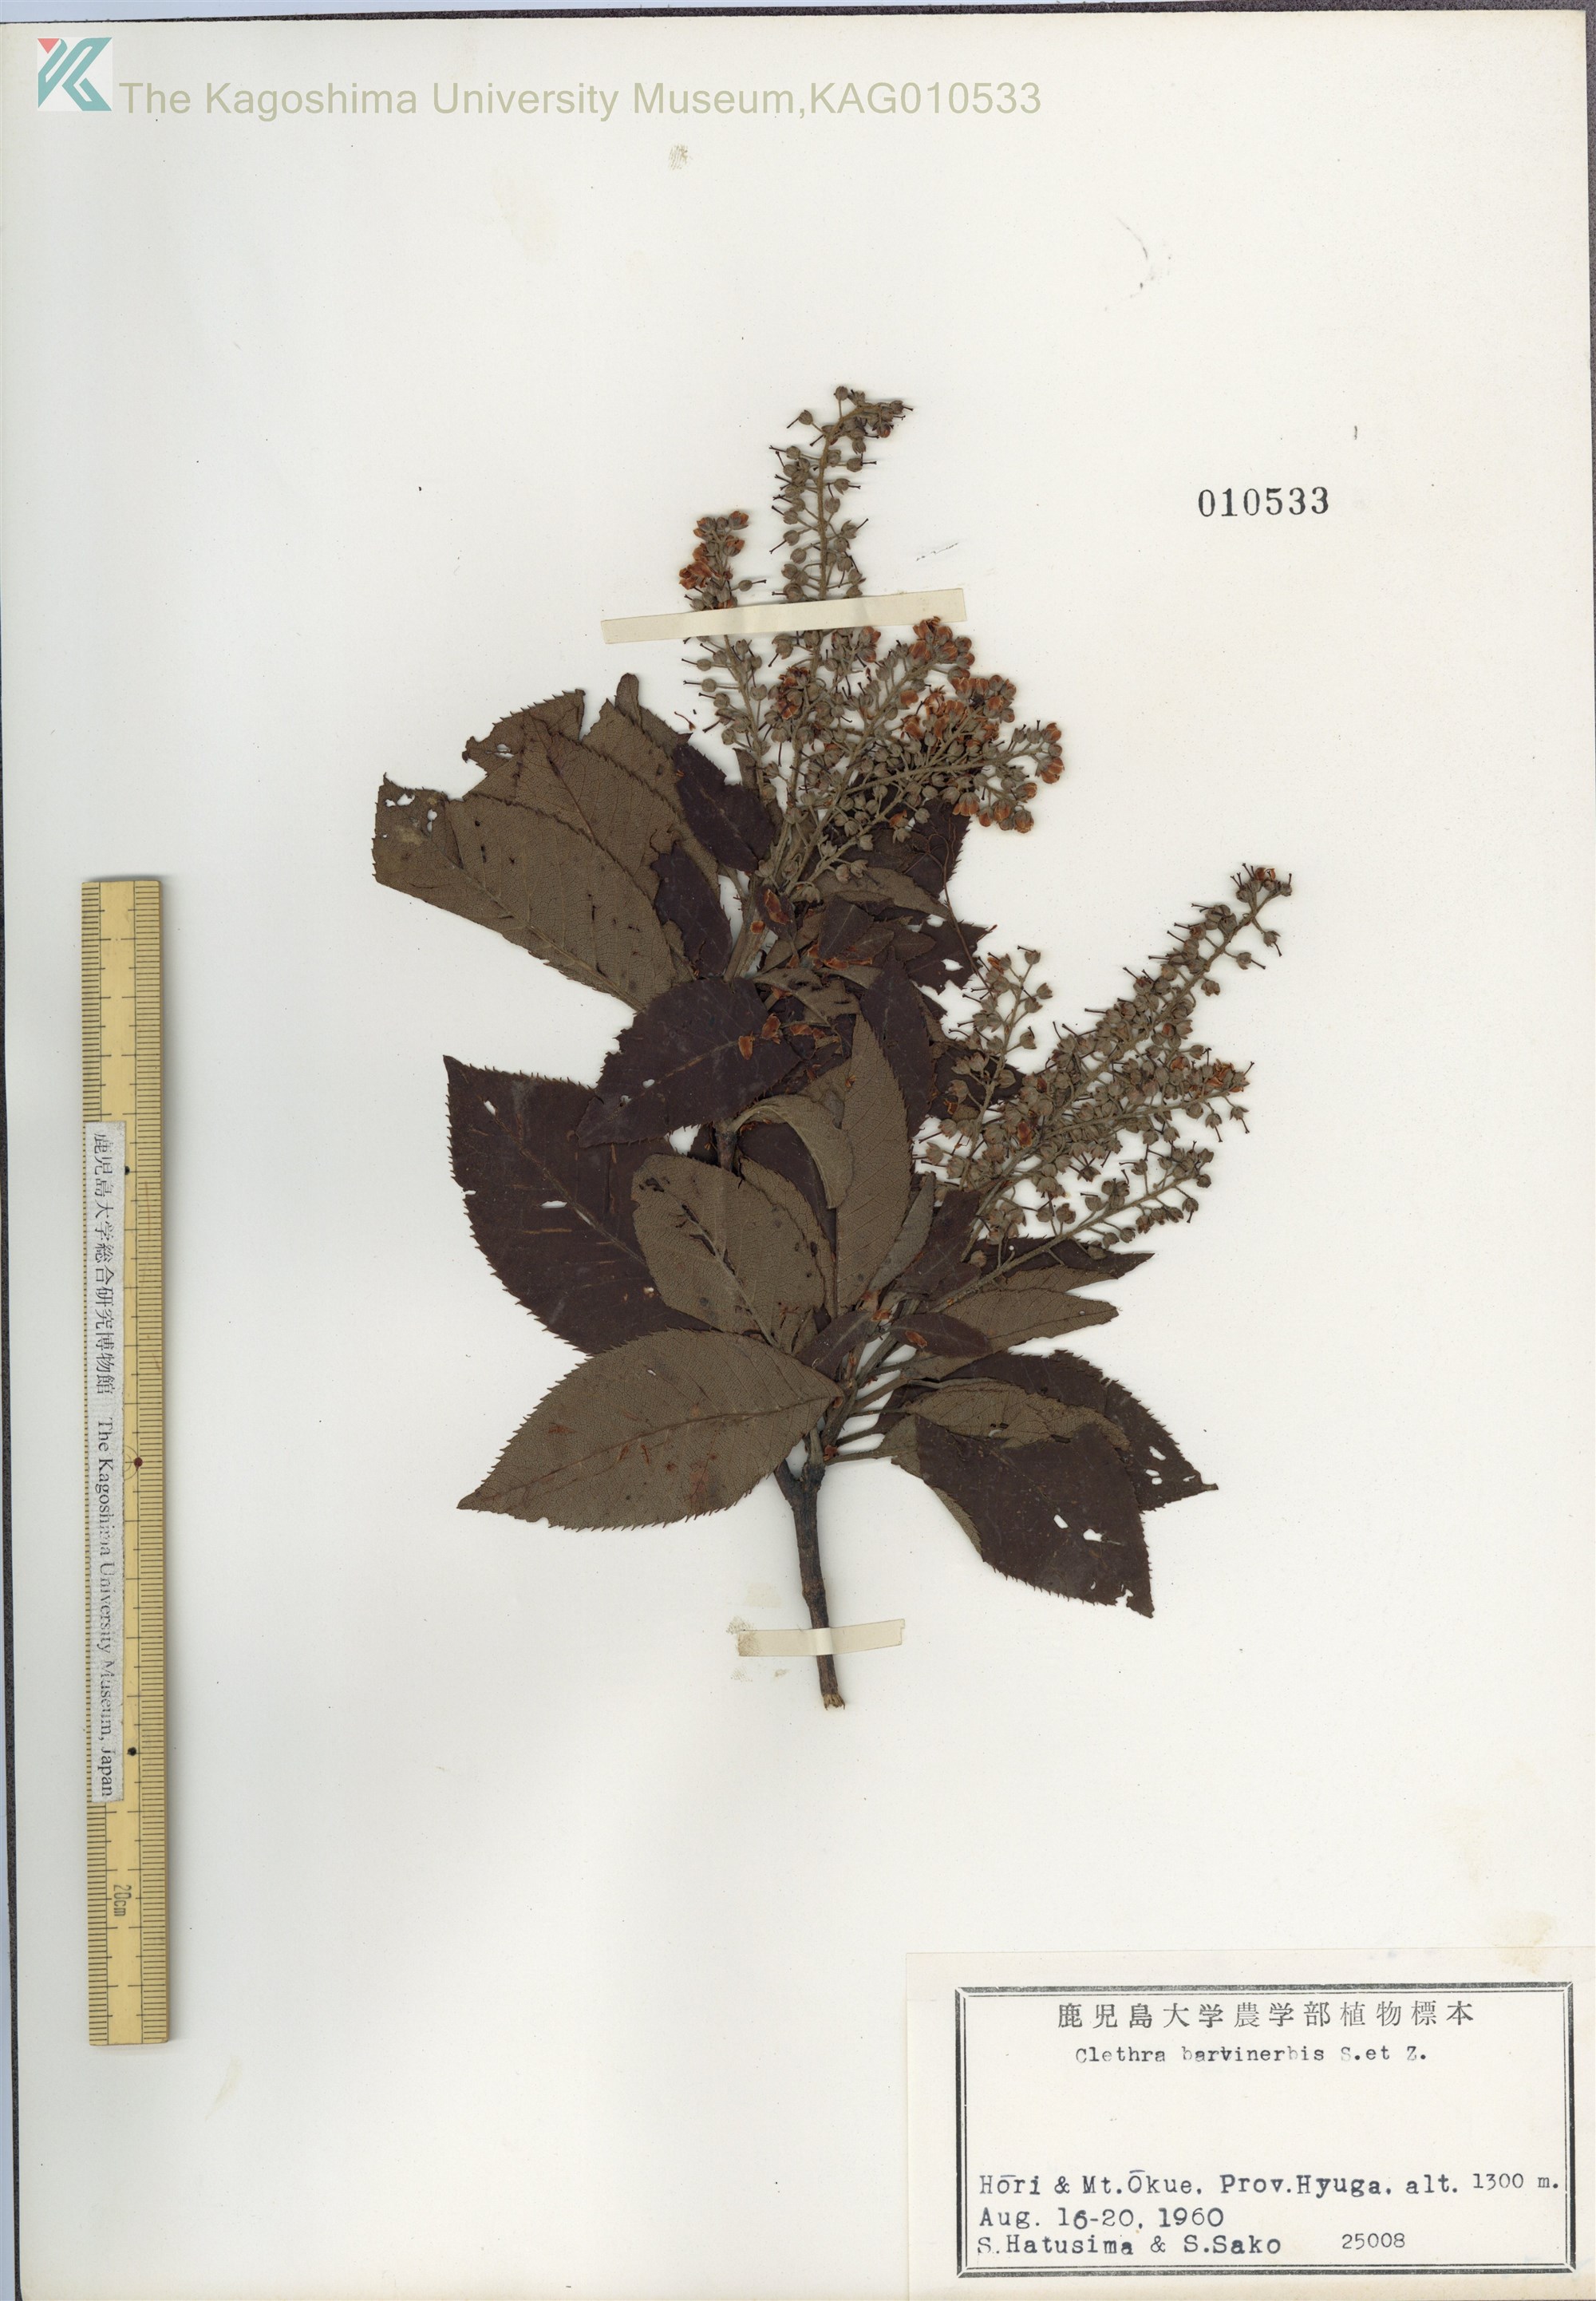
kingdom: Plantae
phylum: Tracheophyta
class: Magnoliopsida
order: Ericales
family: Clethraceae
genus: Clethra
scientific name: Clethra barbinervis
